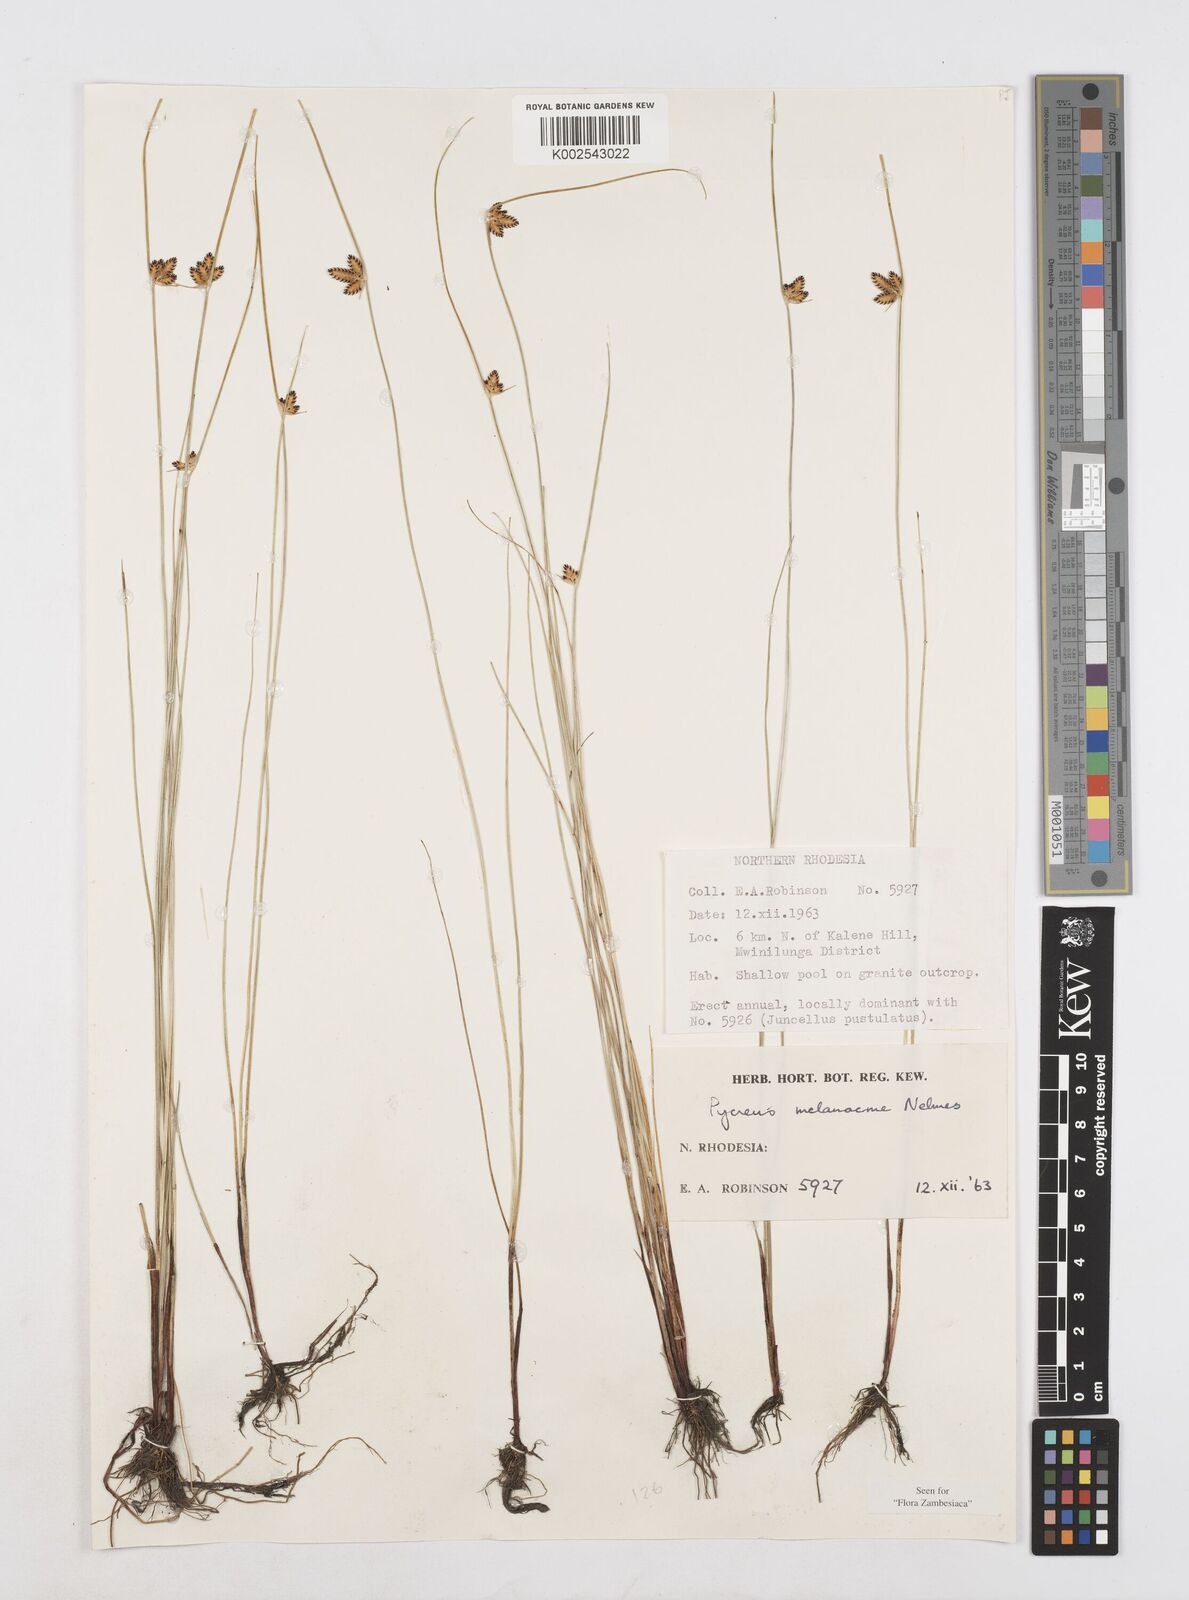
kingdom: Plantae
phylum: Tracheophyta
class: Liliopsida
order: Poales
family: Cyperaceae
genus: Cyperus
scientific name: Cyperus melanacme
